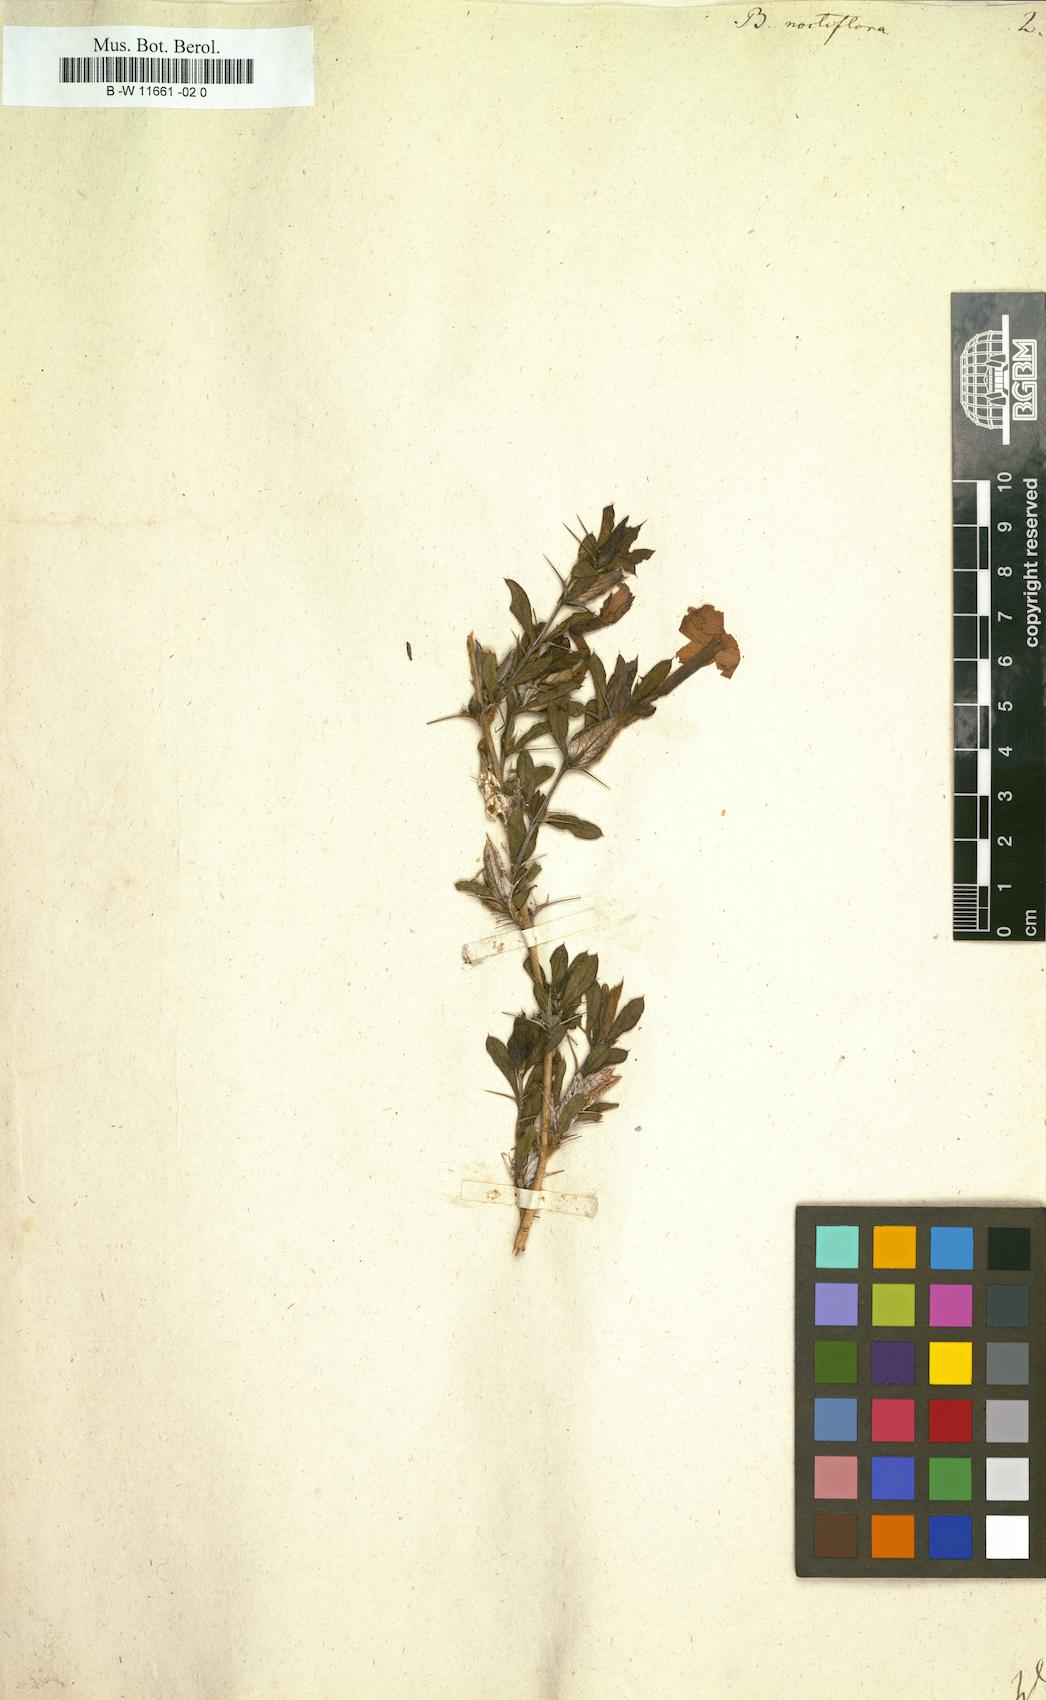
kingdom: Plantae
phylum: Tracheophyta
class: Magnoliopsida
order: Lamiales
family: Acanthaceae
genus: Barleria
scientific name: Barleria noctiflora
